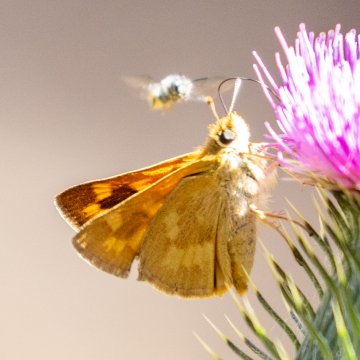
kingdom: Animalia
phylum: Arthropoda
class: Insecta
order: Lepidoptera
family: Hesperiidae
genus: Ochlodes
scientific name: Ochlodes sylvanoides
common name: Woodland Skipper
